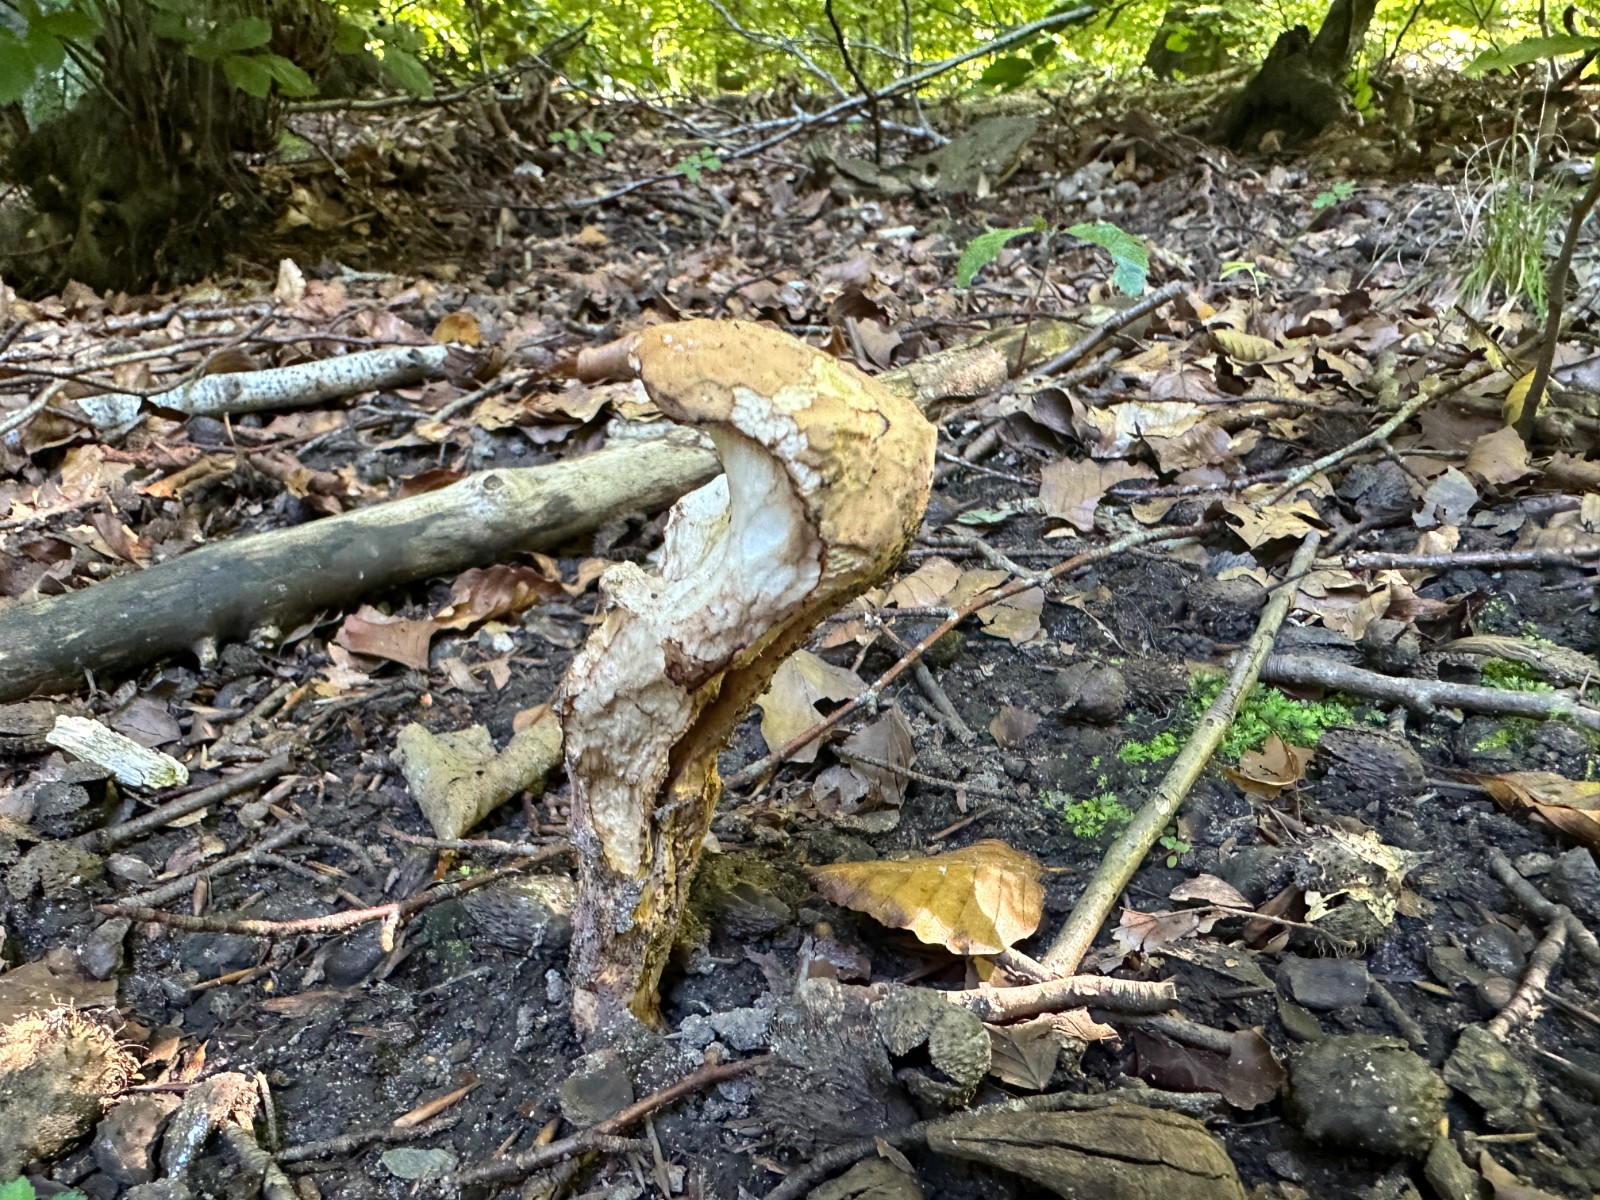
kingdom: Fungi
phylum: Basidiomycota
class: Agaricomycetes
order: Gomphales
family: Clavariadelphaceae
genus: Clavariadelphus
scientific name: Clavariadelphus pistillaris
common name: herkules-kæmpekølle
